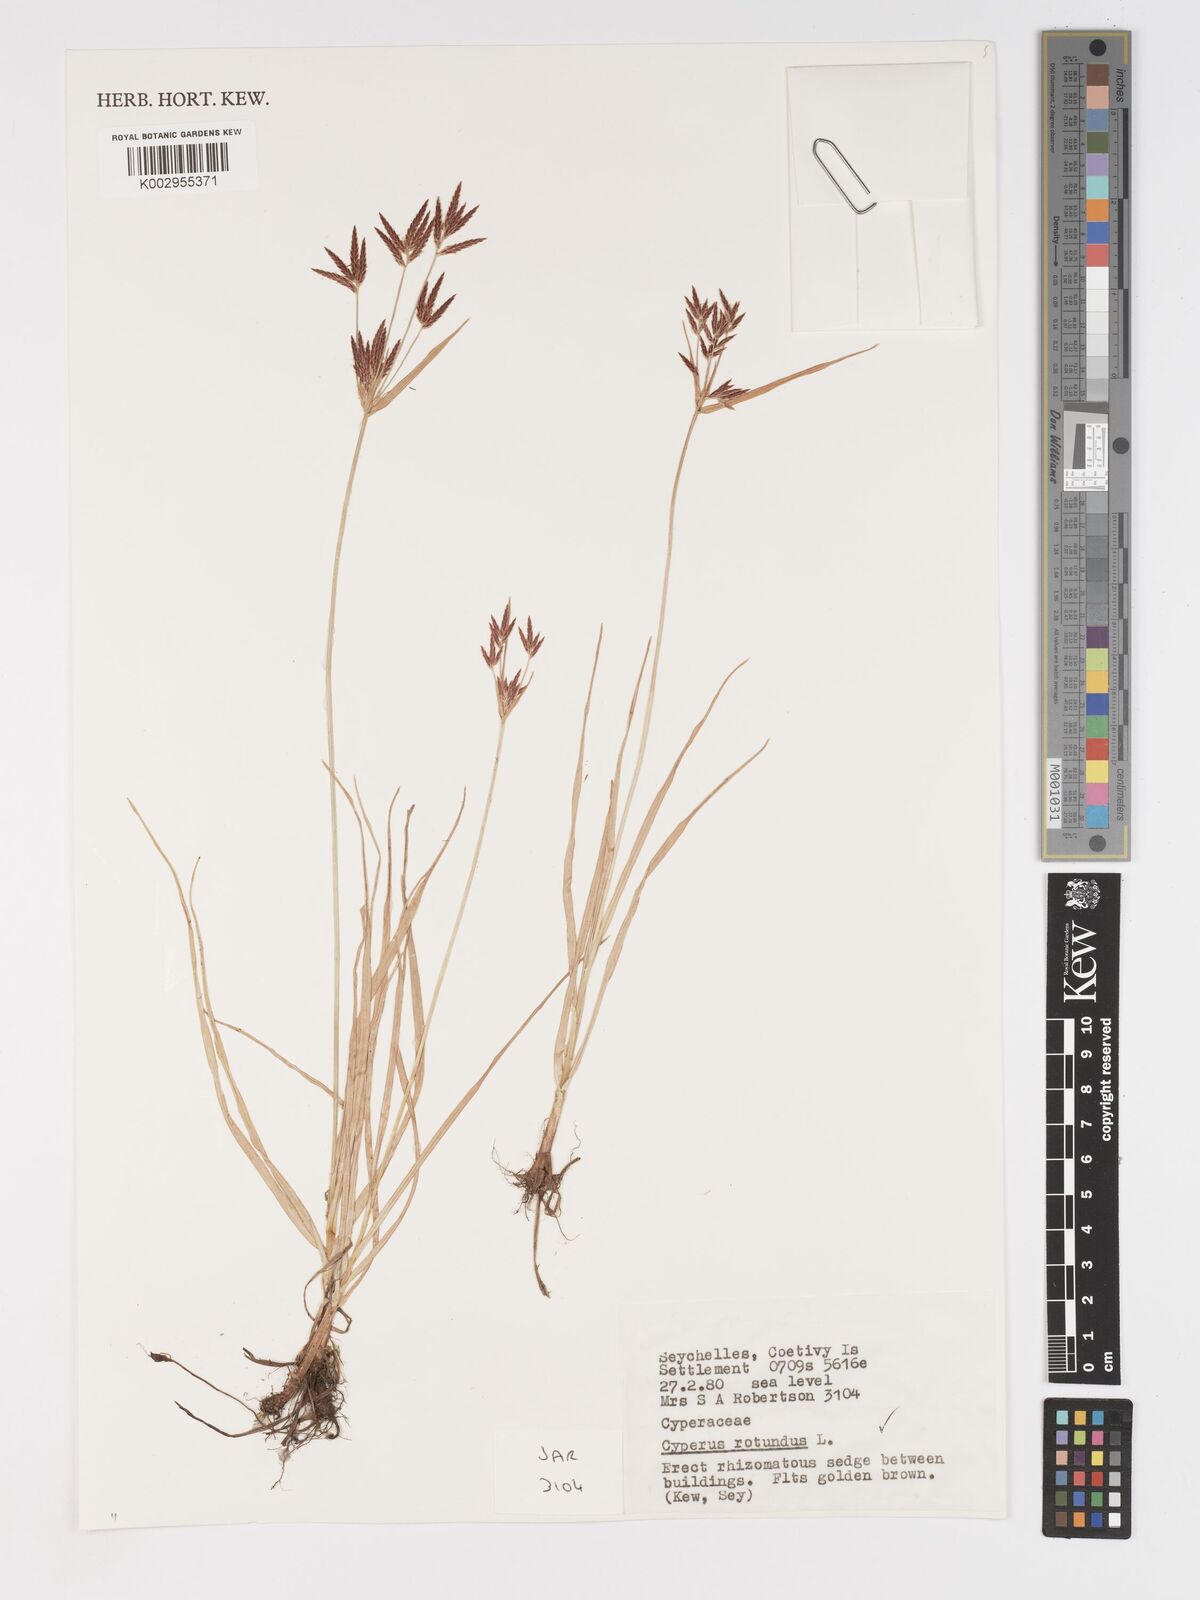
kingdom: Plantae
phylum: Tracheophyta
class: Liliopsida
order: Poales
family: Cyperaceae
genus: Cyperus
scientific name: Cyperus rotundus
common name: Nutgrass
